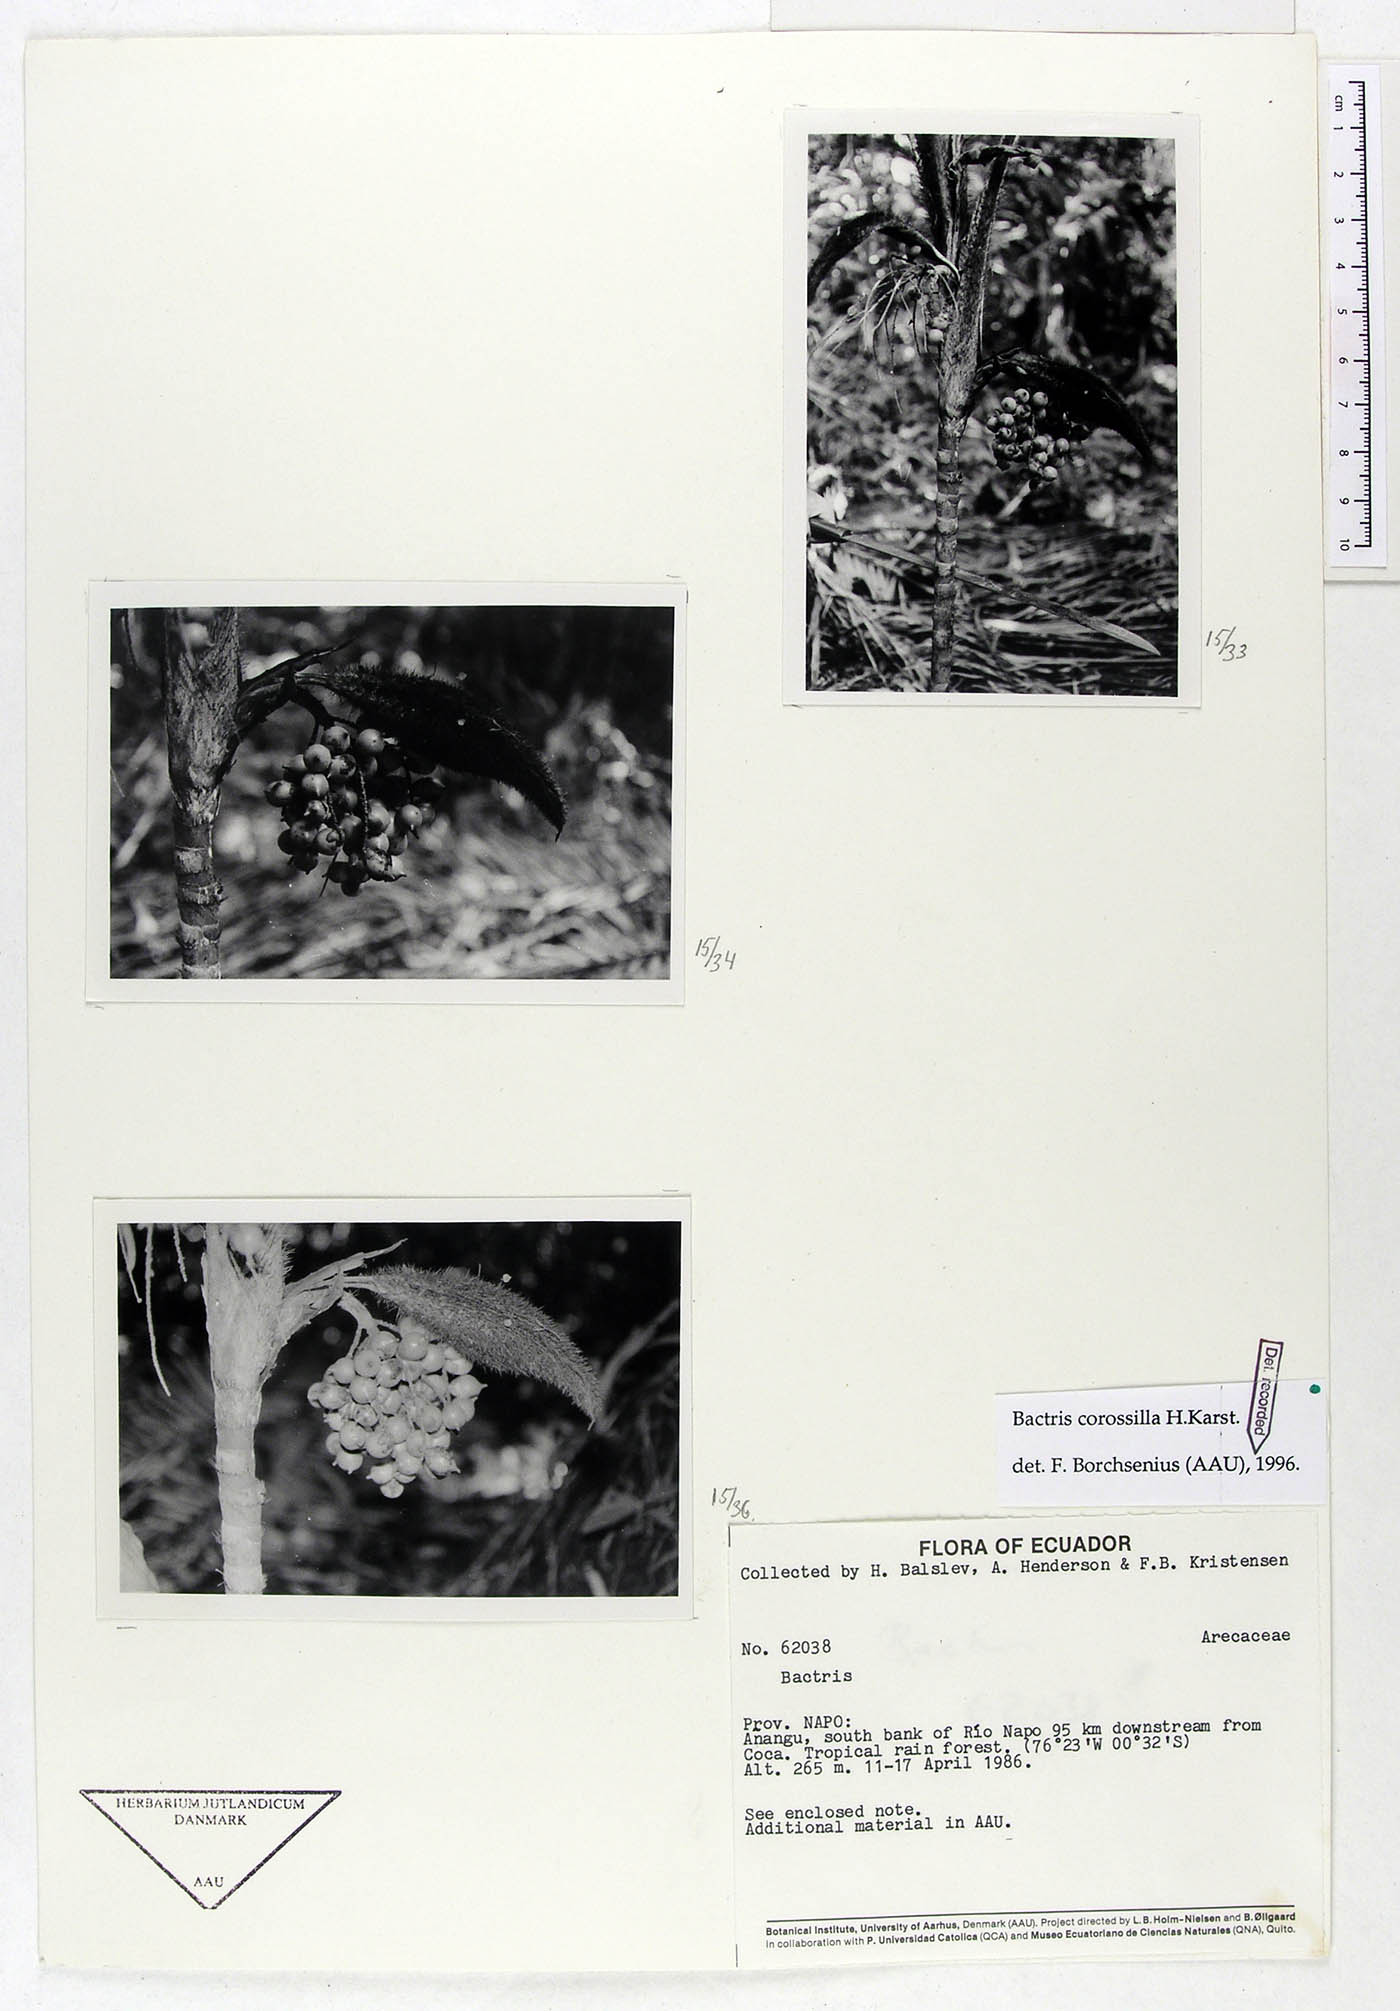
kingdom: Plantae
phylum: Tracheophyta
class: Liliopsida
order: Arecales
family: Arecaceae
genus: Bactris
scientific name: Bactris corossilla
